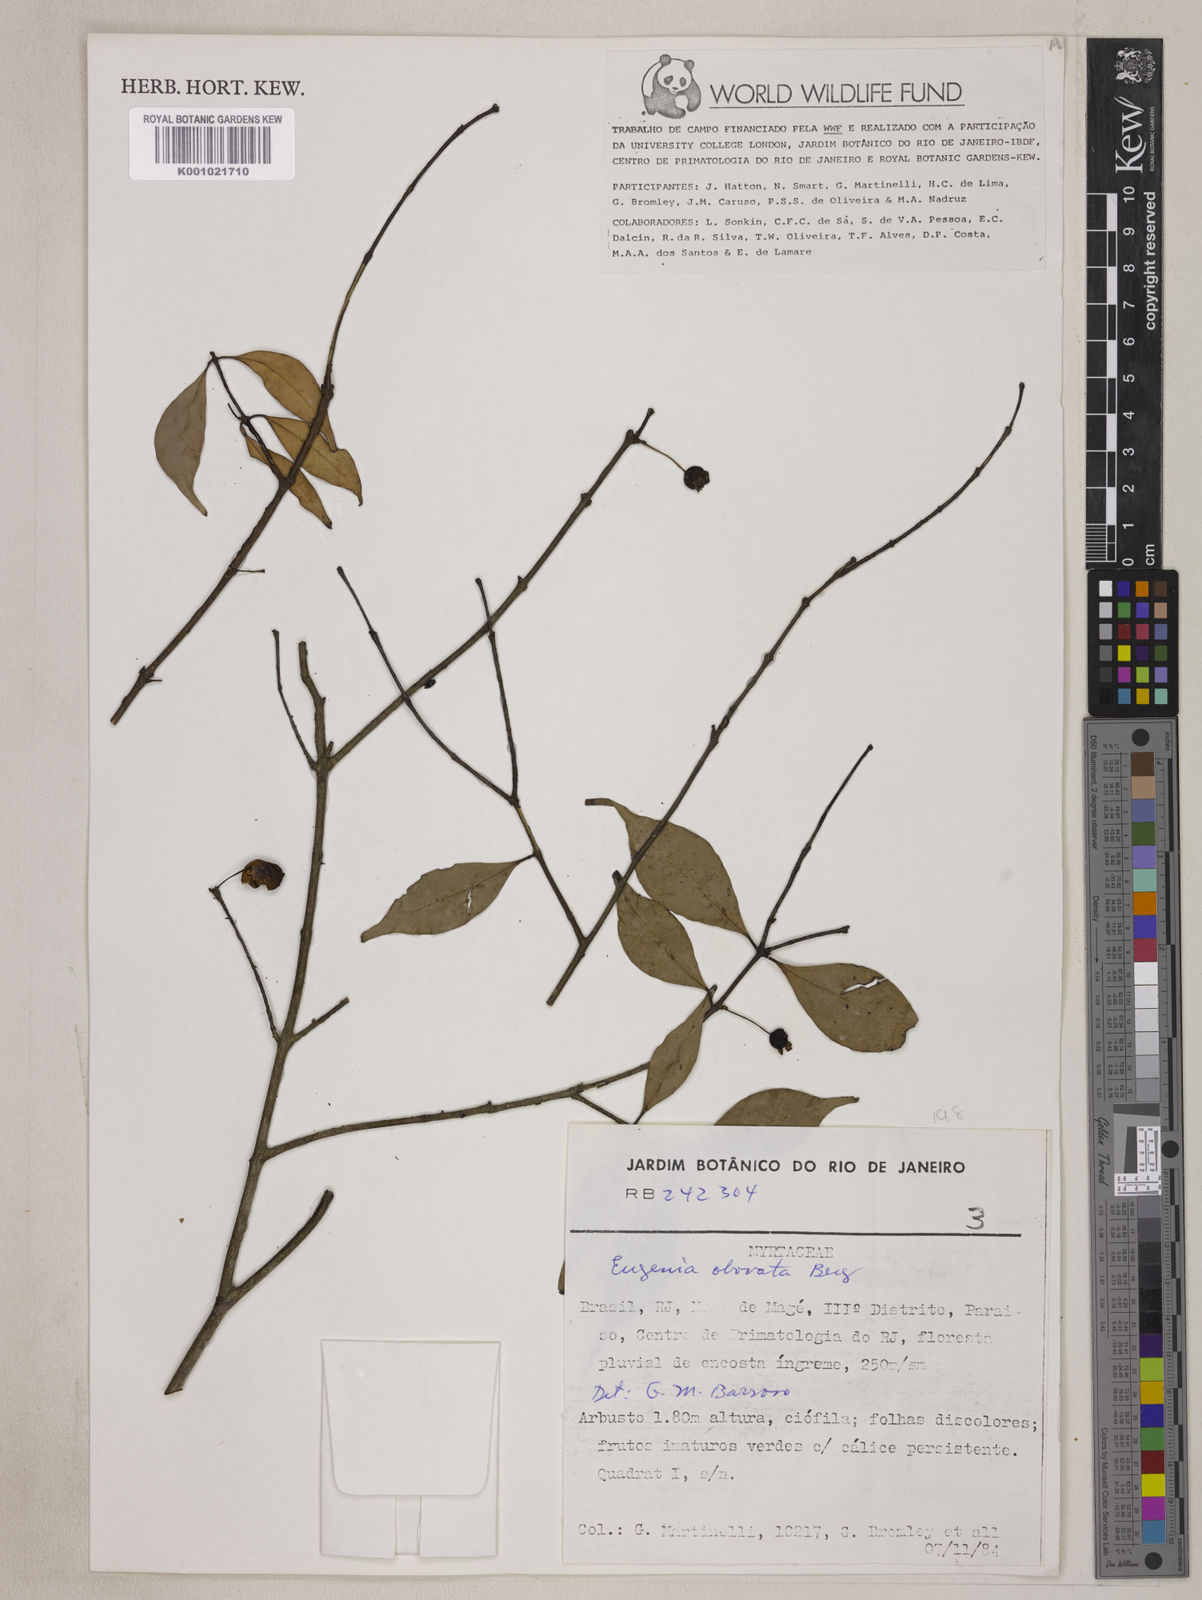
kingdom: Plantae
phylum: Tracheophyta
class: Magnoliopsida
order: Myrtales
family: Myrtaceae
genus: Eugenia
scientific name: Eugenia subterminalis
